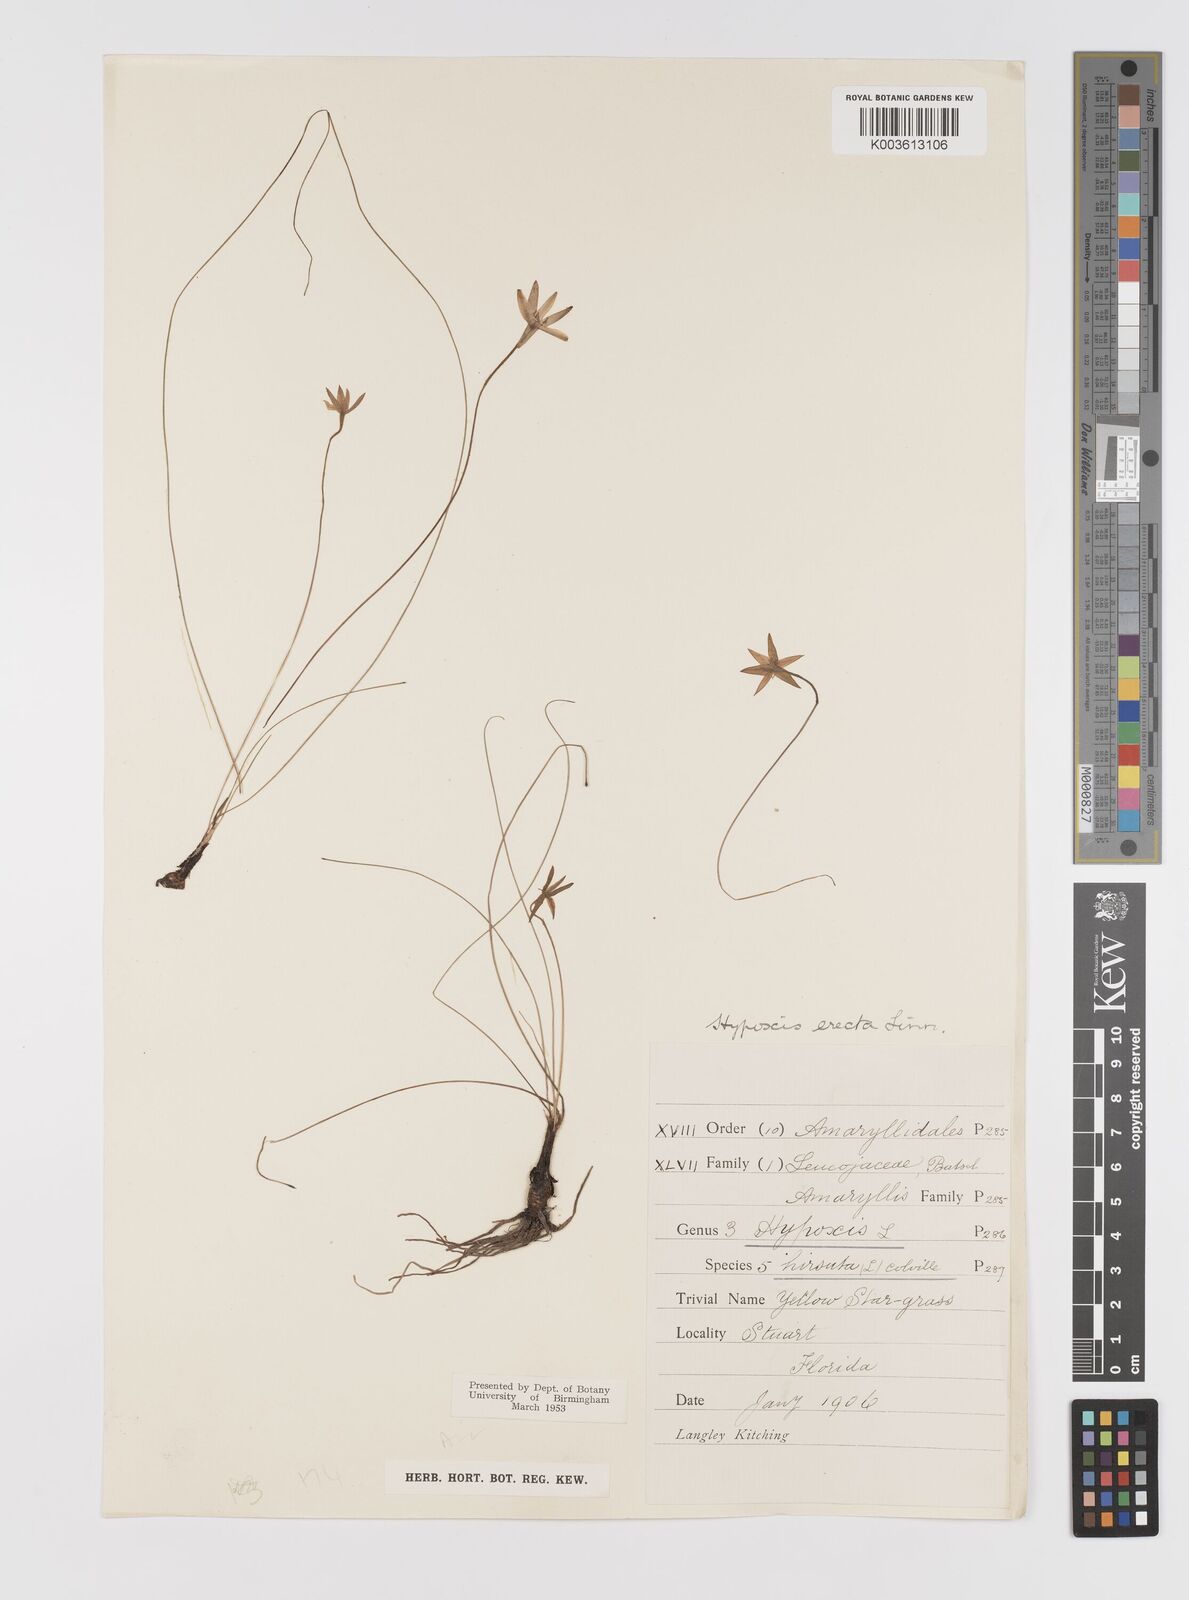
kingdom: Plantae
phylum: Tracheophyta
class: Liliopsida
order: Asparagales
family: Hypoxidaceae
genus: Hypoxis
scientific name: Hypoxis hirsuta
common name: Common goldstar
